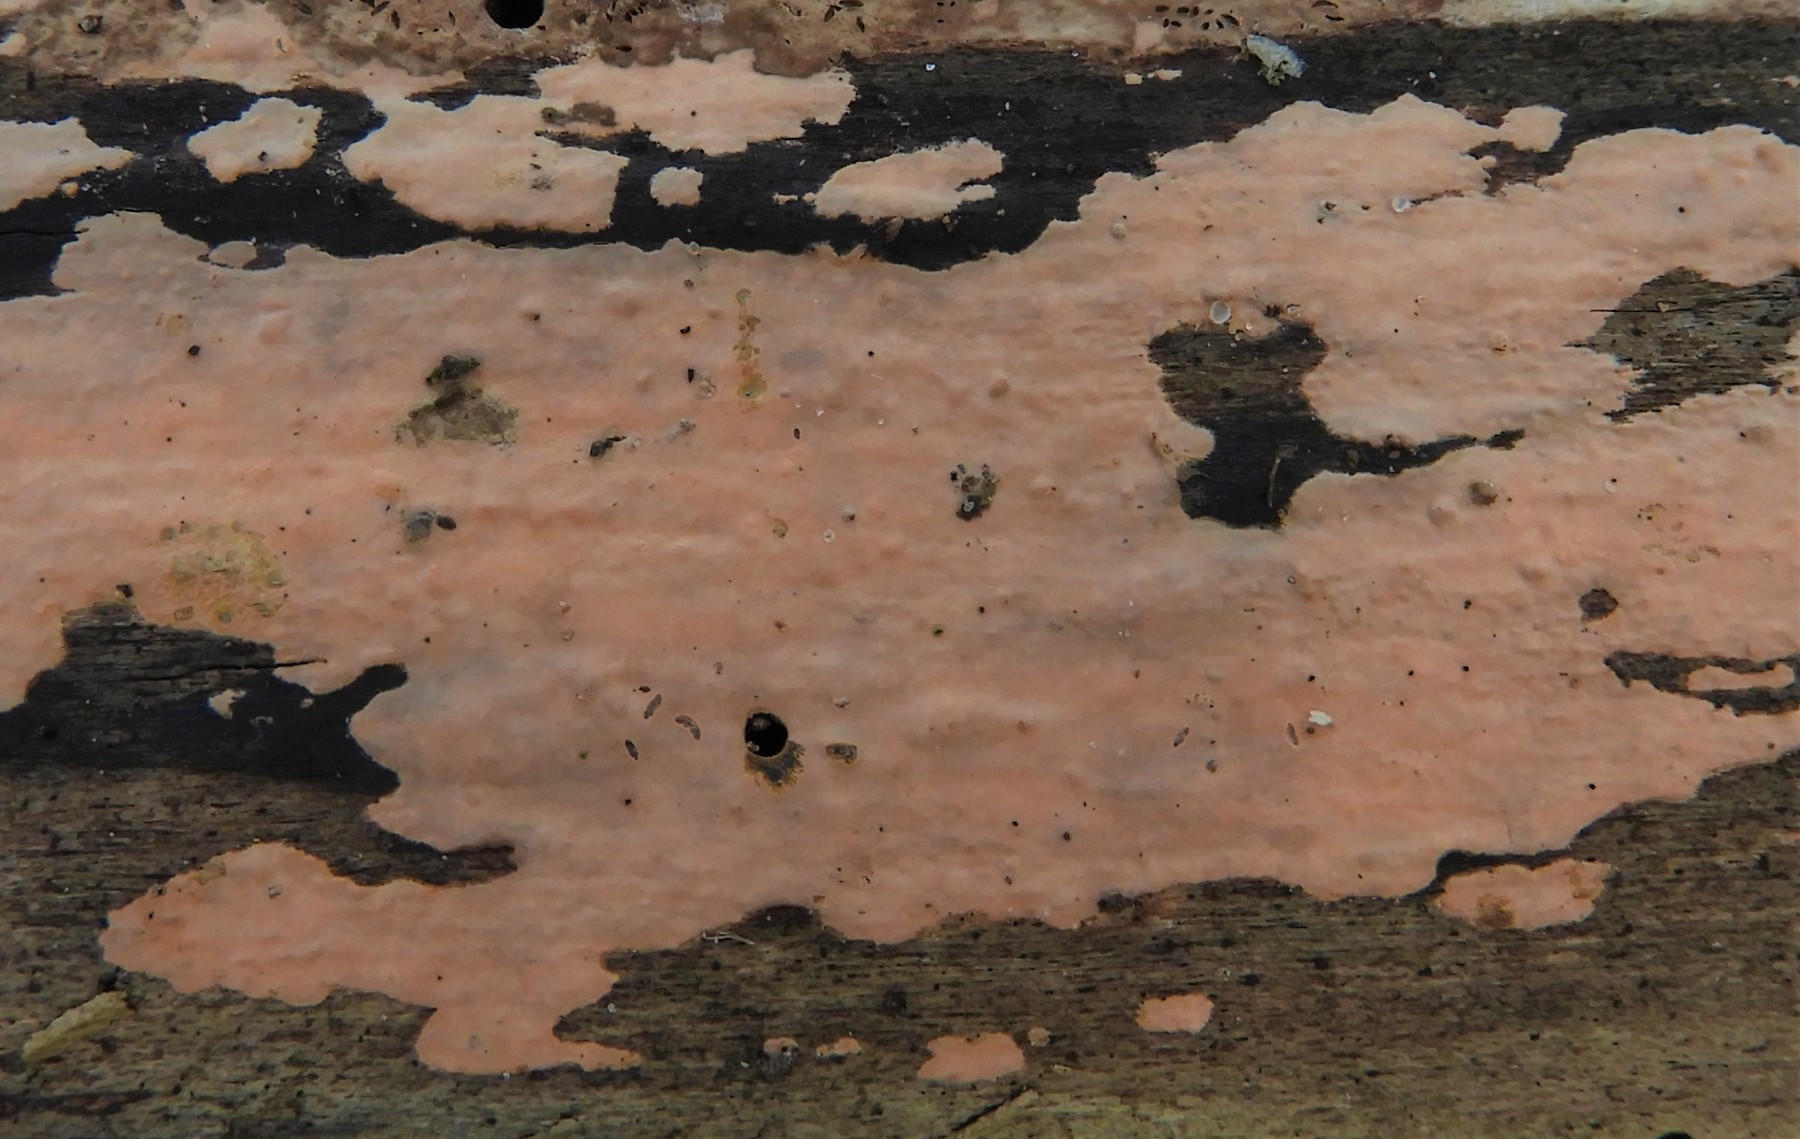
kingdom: Fungi
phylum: Basidiomycota
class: Agaricomycetes
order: Russulales
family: Peniophoraceae
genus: Peniophora
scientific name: Peniophora incarnata
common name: laksefarvet voksskind
